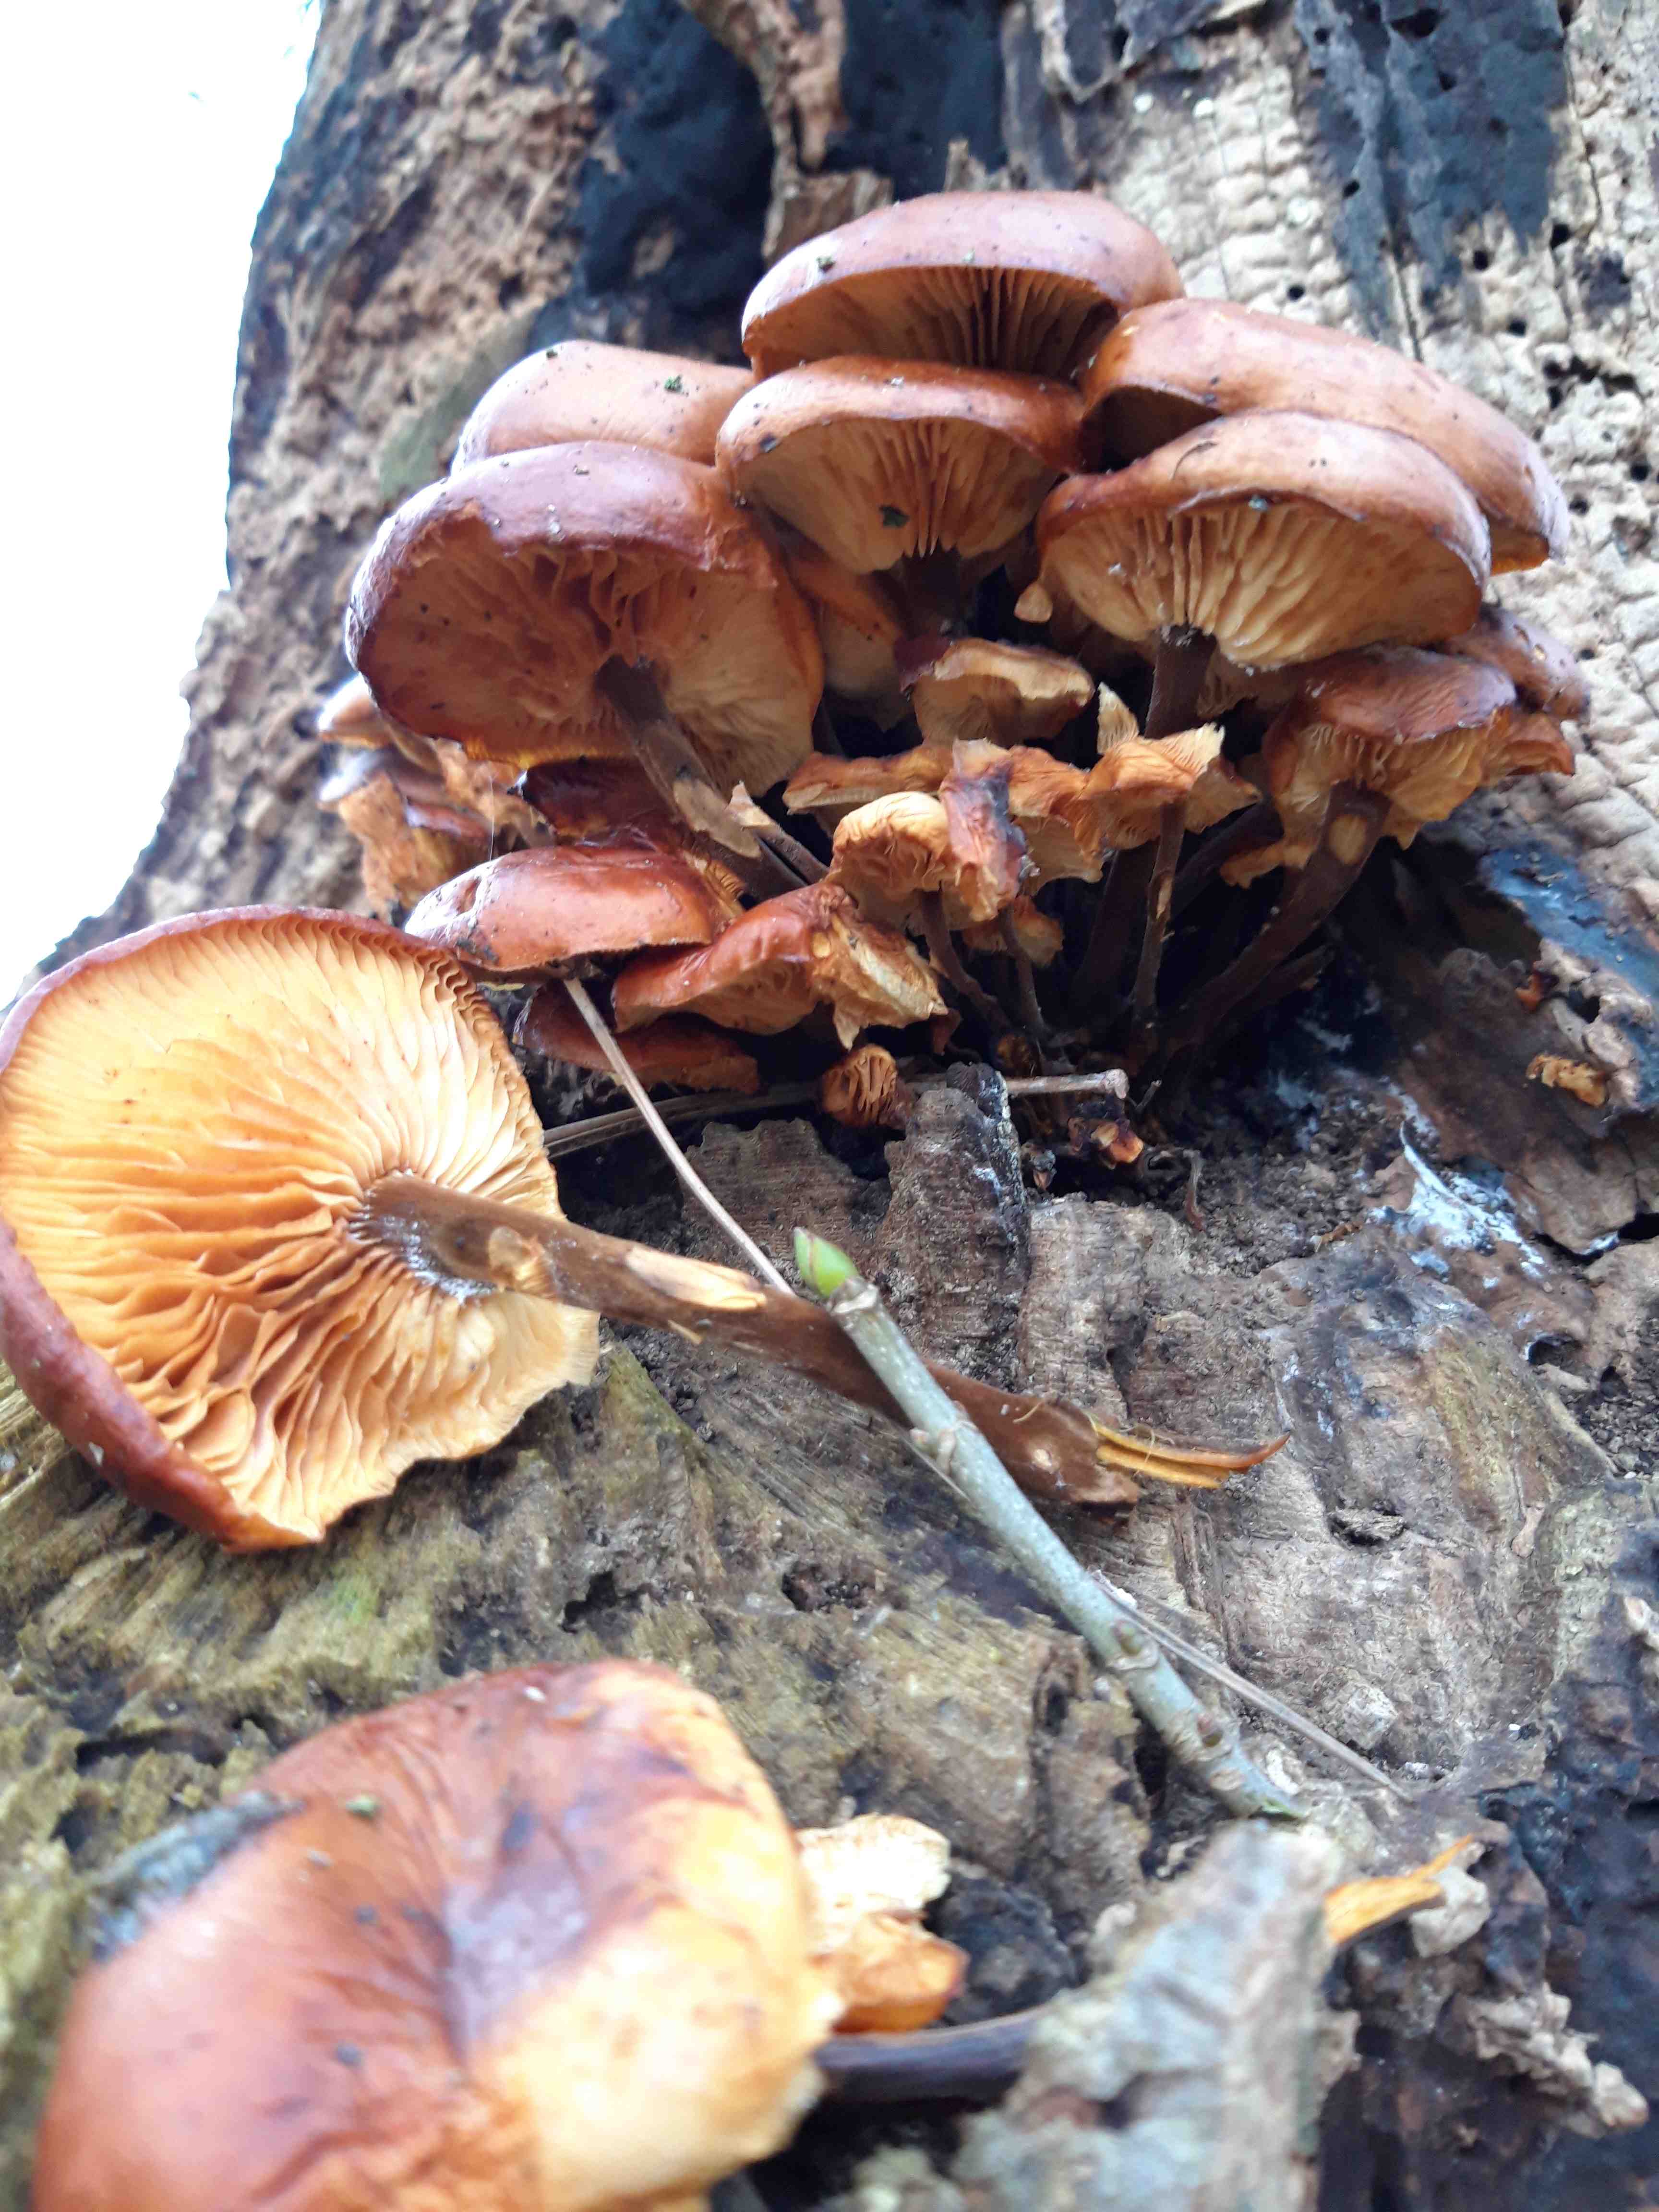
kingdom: Fungi
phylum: Basidiomycota
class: Agaricomycetes
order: Agaricales
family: Physalacriaceae
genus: Flammulina
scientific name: Flammulina velutipes
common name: gul fløjlsfod
